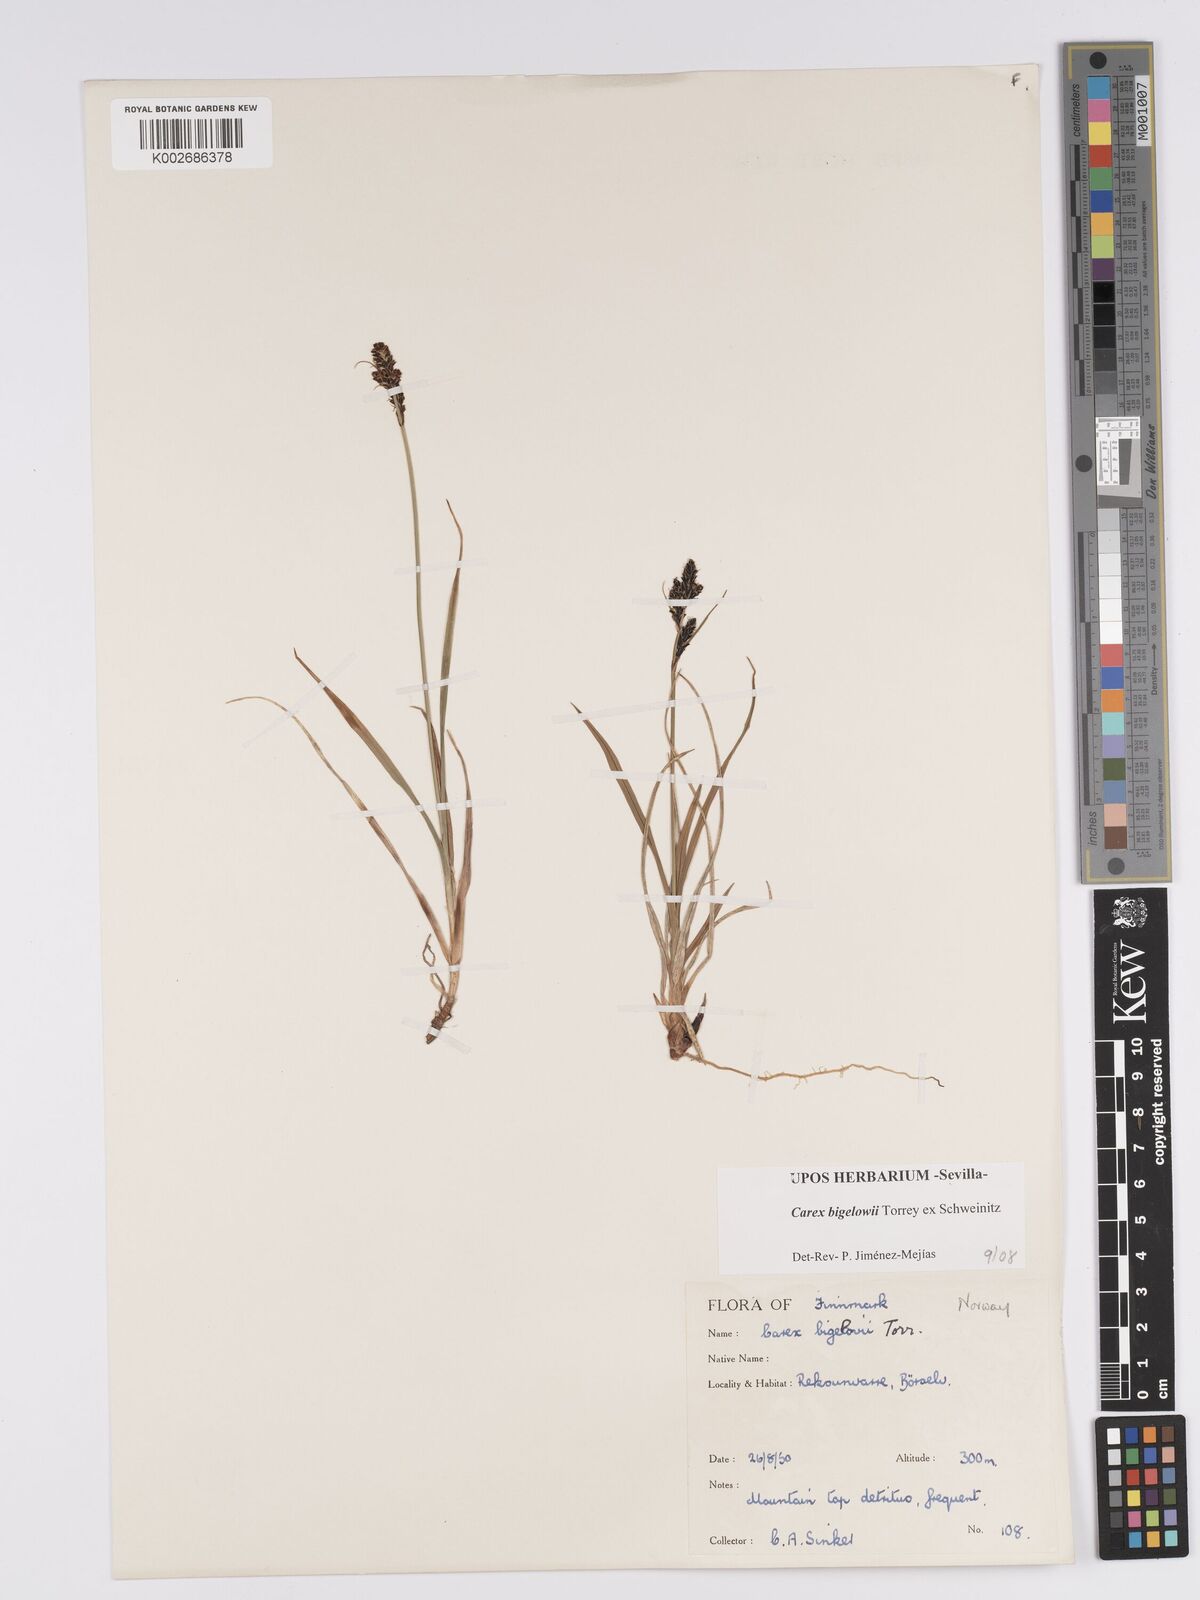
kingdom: Plantae
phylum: Tracheophyta
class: Liliopsida
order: Poales
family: Cyperaceae
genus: Carex
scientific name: Carex bigelowii
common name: Stiff sedge
